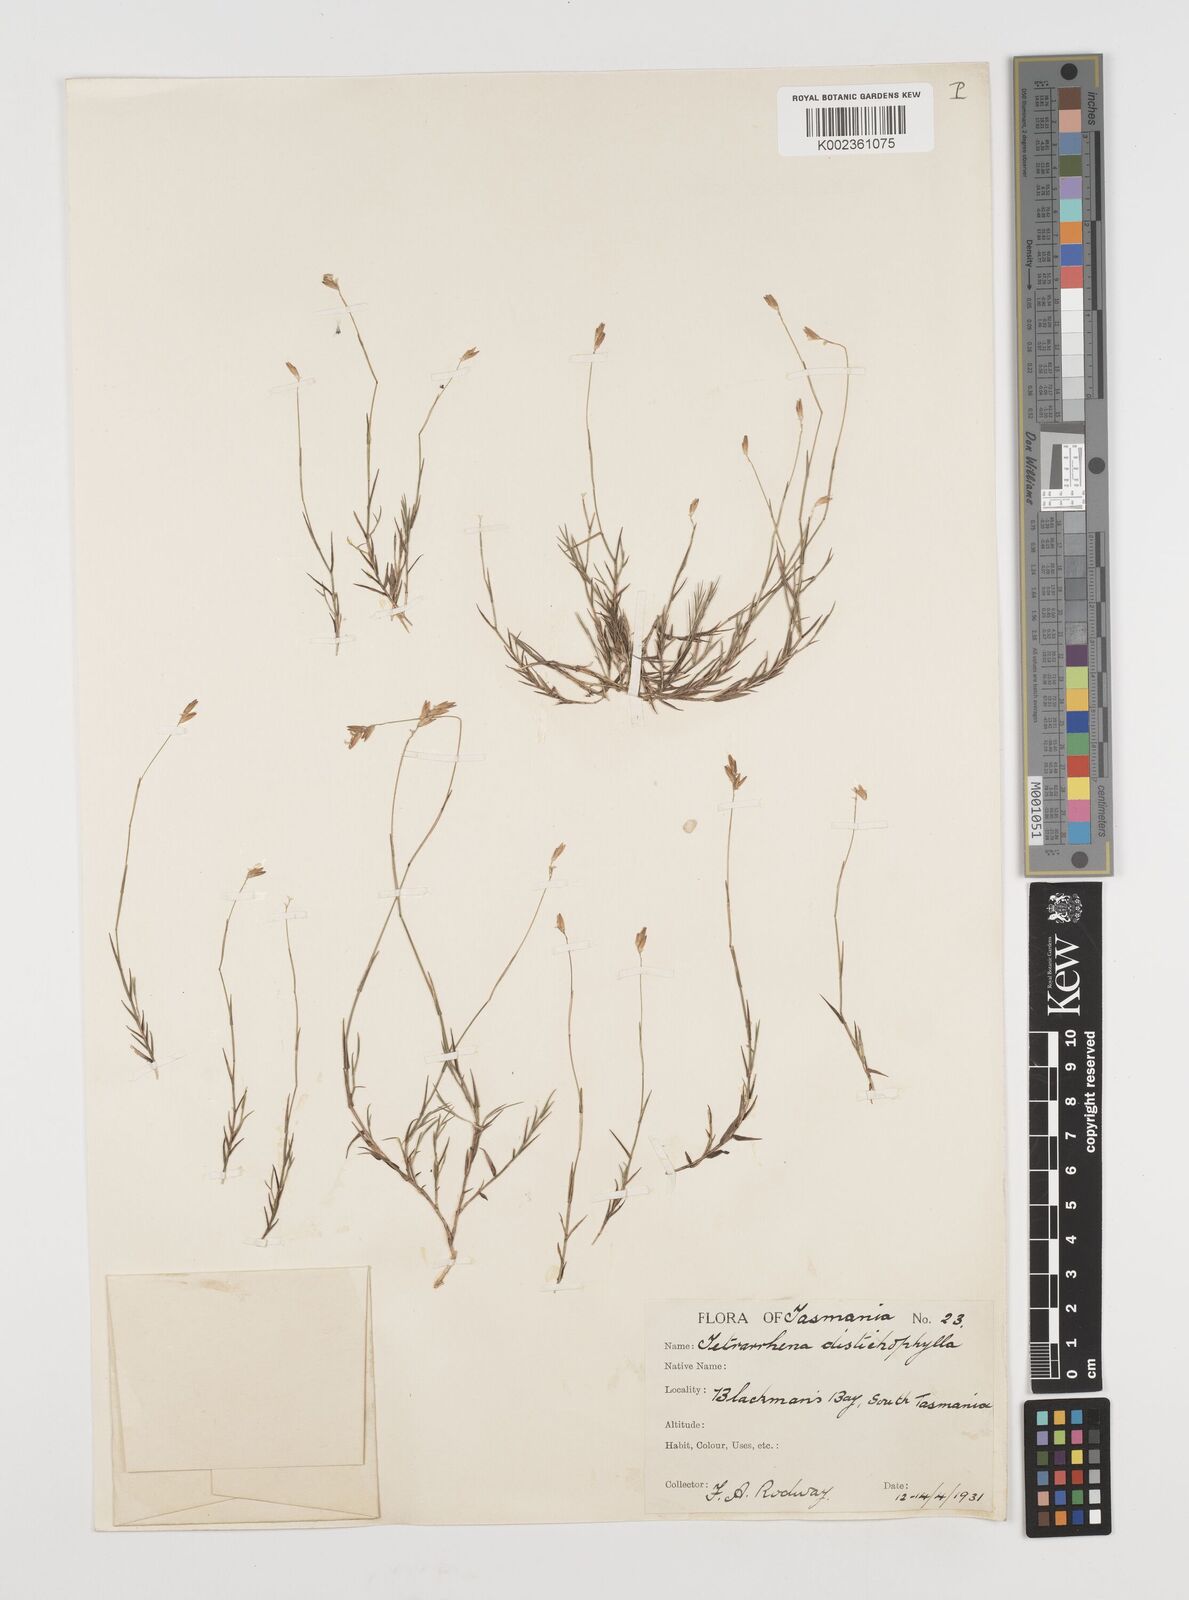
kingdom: Plantae
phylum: Tracheophyta
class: Liliopsida
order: Poales
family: Poaceae
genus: Tetrarrhena
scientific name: Tetrarrhena distichophylla
